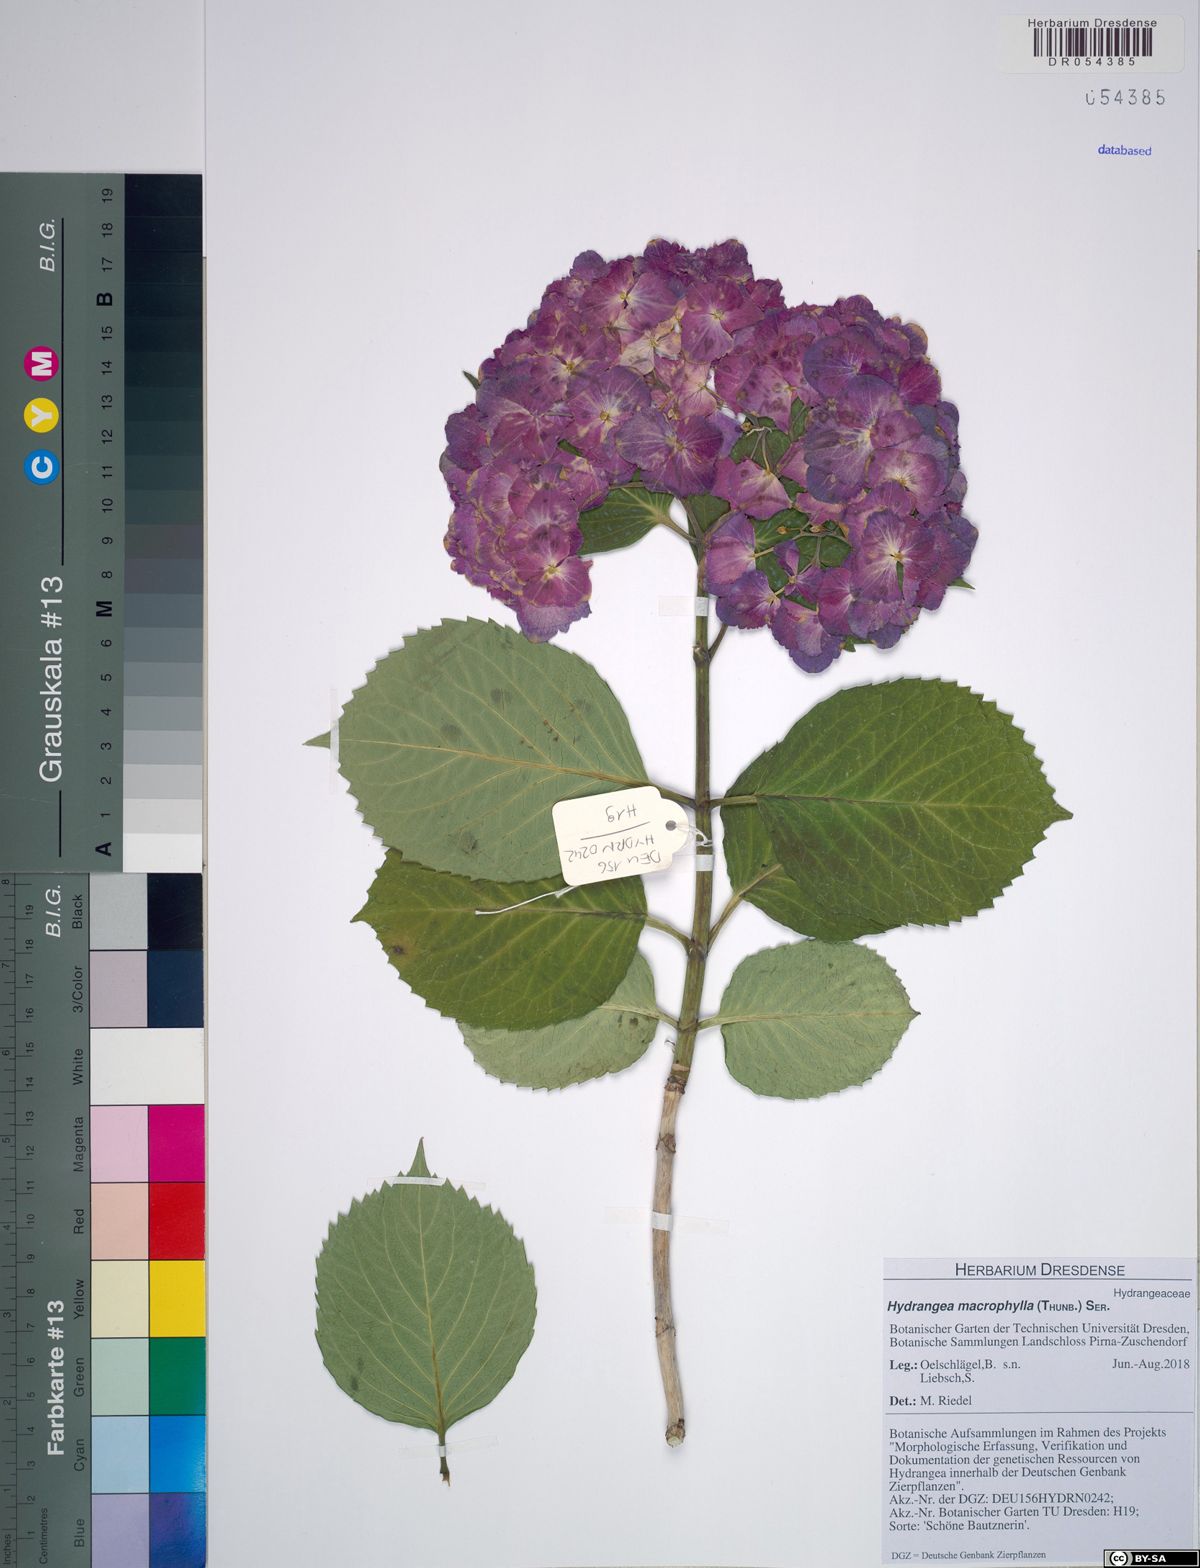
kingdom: Plantae
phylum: Tracheophyta
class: Magnoliopsida
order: Cornales
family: Hydrangeaceae
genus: Hydrangea
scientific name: Hydrangea macrophylla
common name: Hydrangea
